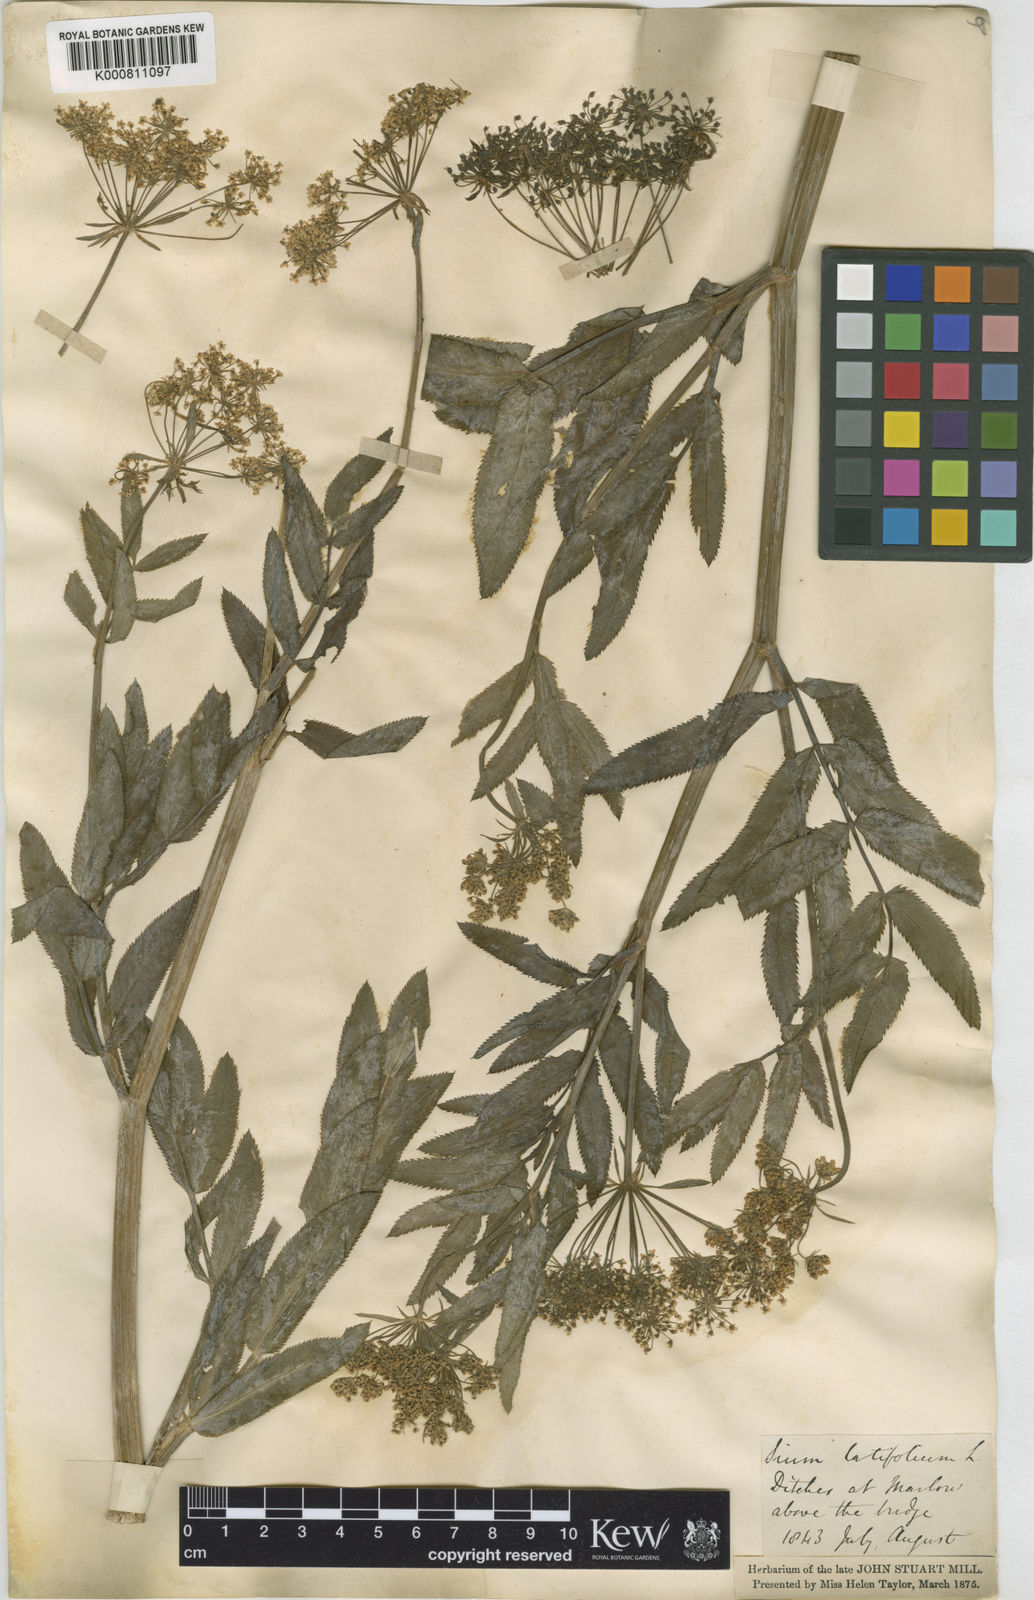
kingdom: Plantae
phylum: Tracheophyta
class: Magnoliopsida
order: Apiales
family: Apiaceae
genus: Sium
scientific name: Sium latifolium
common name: Greater water-parsnip
